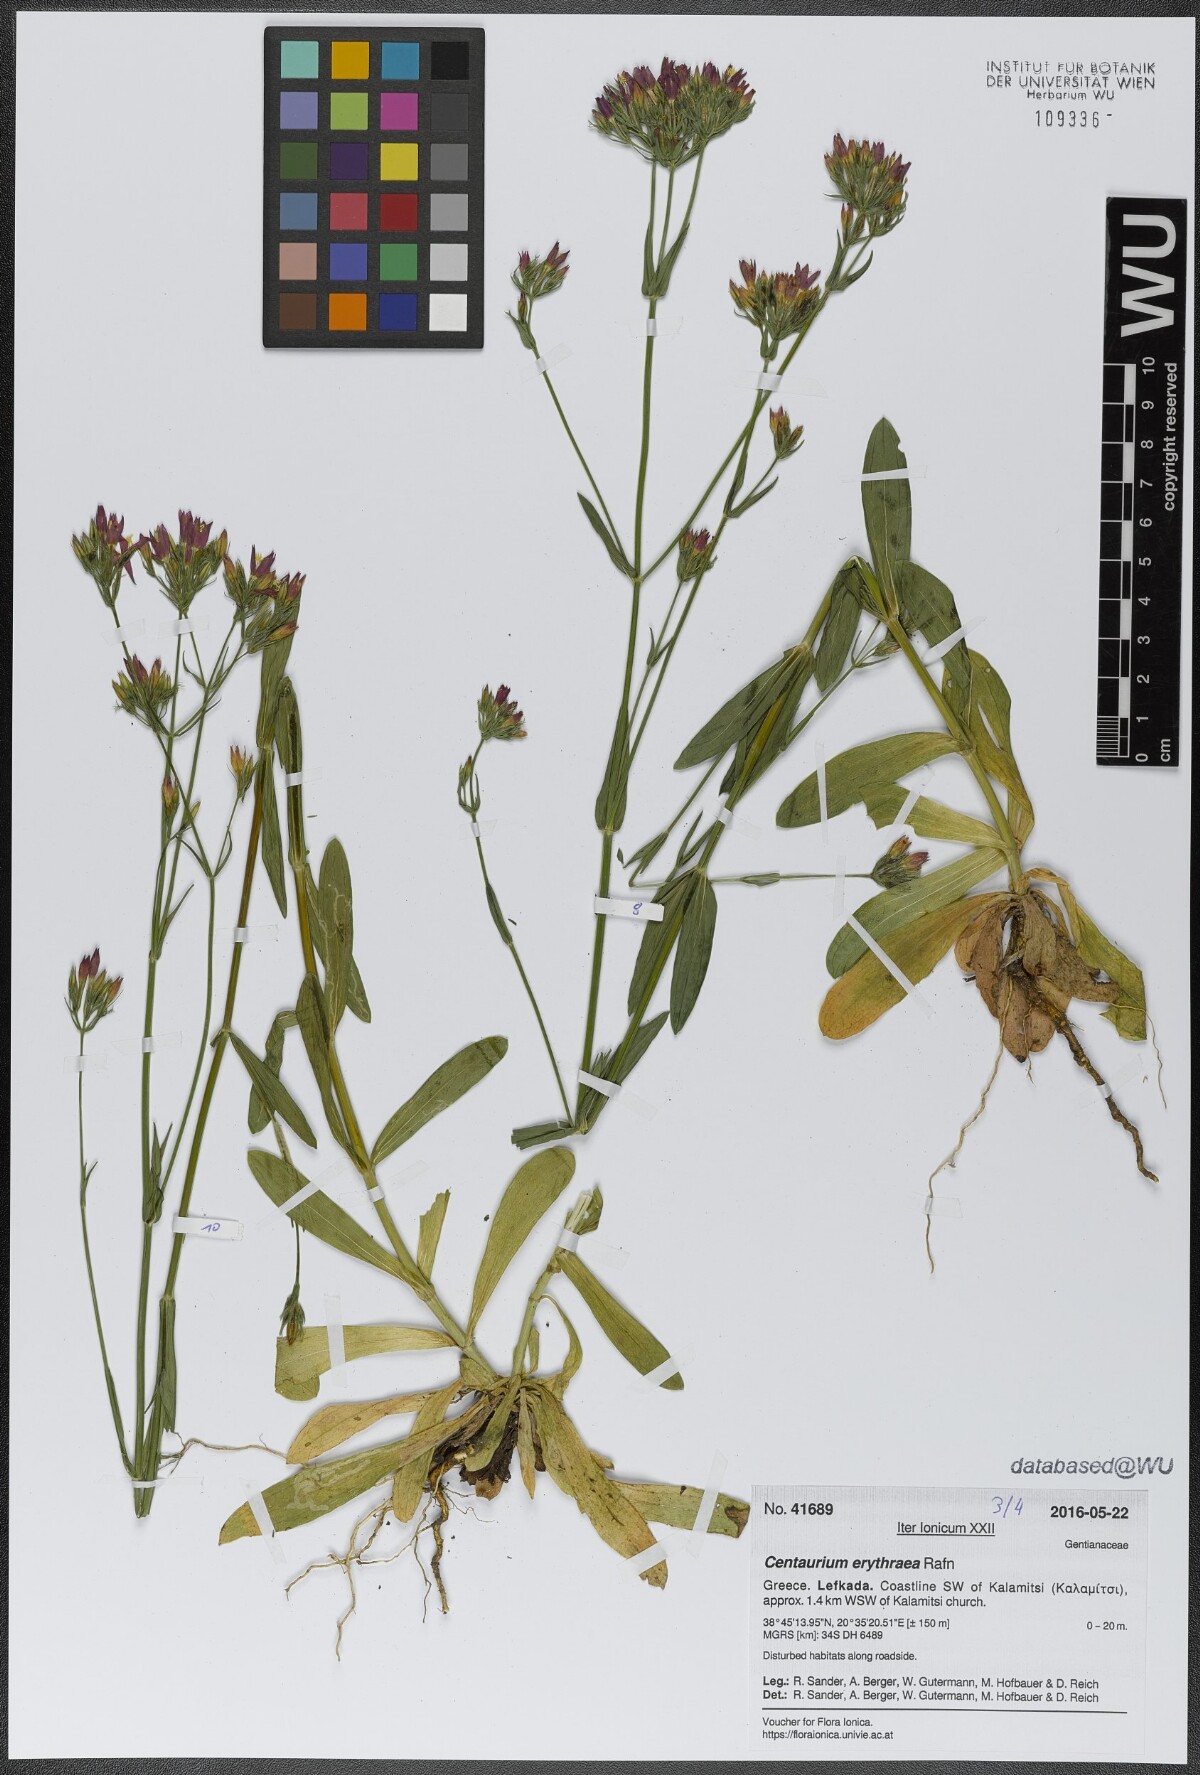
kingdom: Plantae
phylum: Tracheophyta
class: Magnoliopsida
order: Gentianales
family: Gentianaceae
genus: Centaurium
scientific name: Centaurium erythraea
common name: Common centaury
